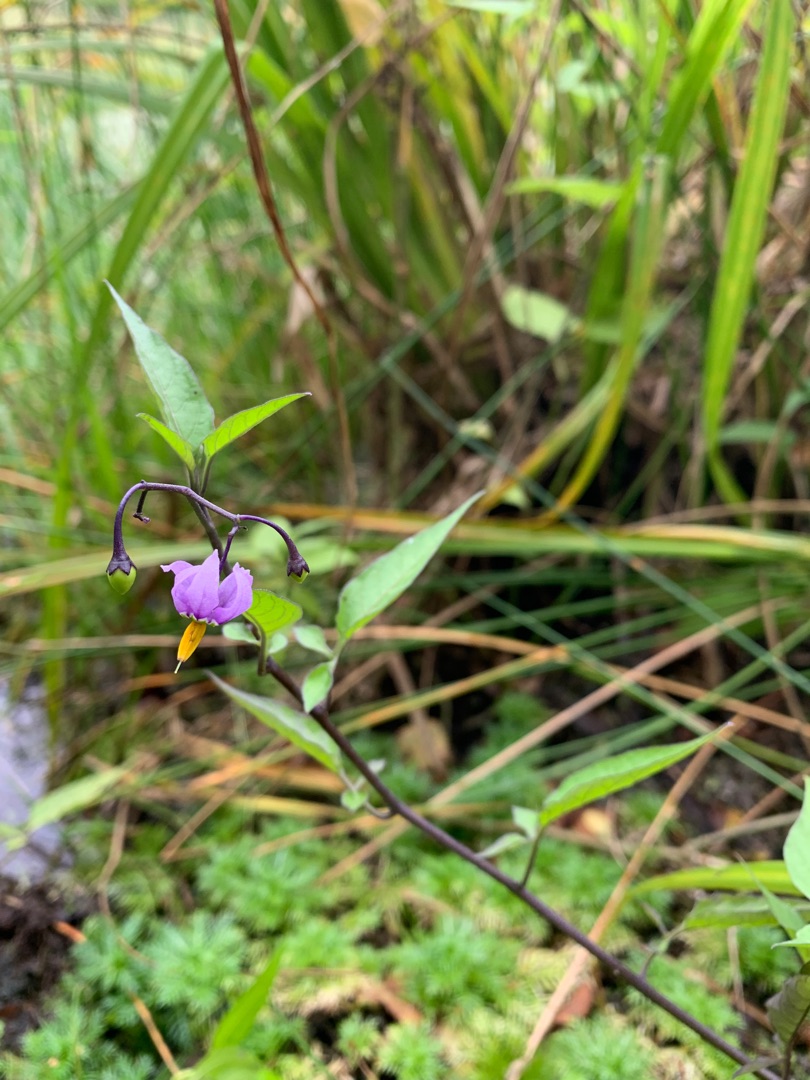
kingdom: Plantae
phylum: Tracheophyta
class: Magnoliopsida
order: Solanales
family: Solanaceae
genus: Solanum
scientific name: Solanum dulcamara
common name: Bittersød natskygge
